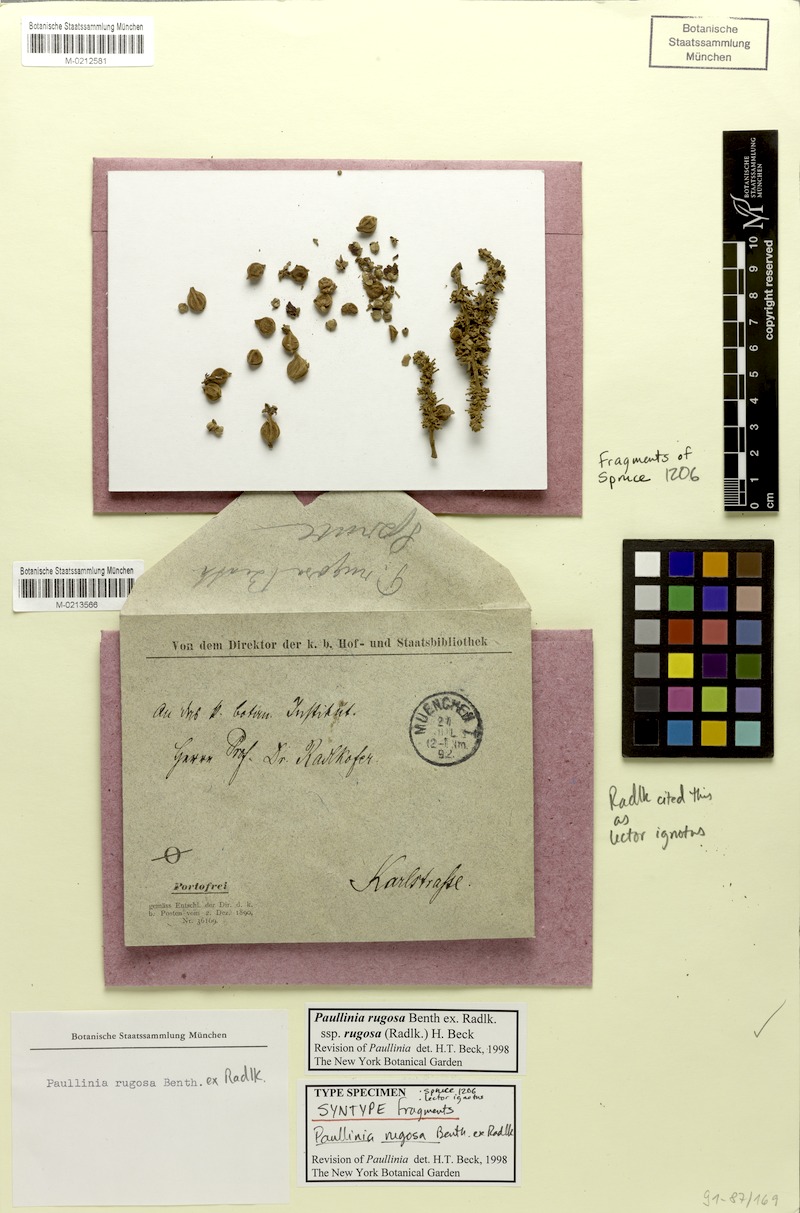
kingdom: Plantae
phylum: Tracheophyta
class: Magnoliopsida
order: Sapindales
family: Sapindaceae
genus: Paullinia
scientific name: Paullinia rugosa
